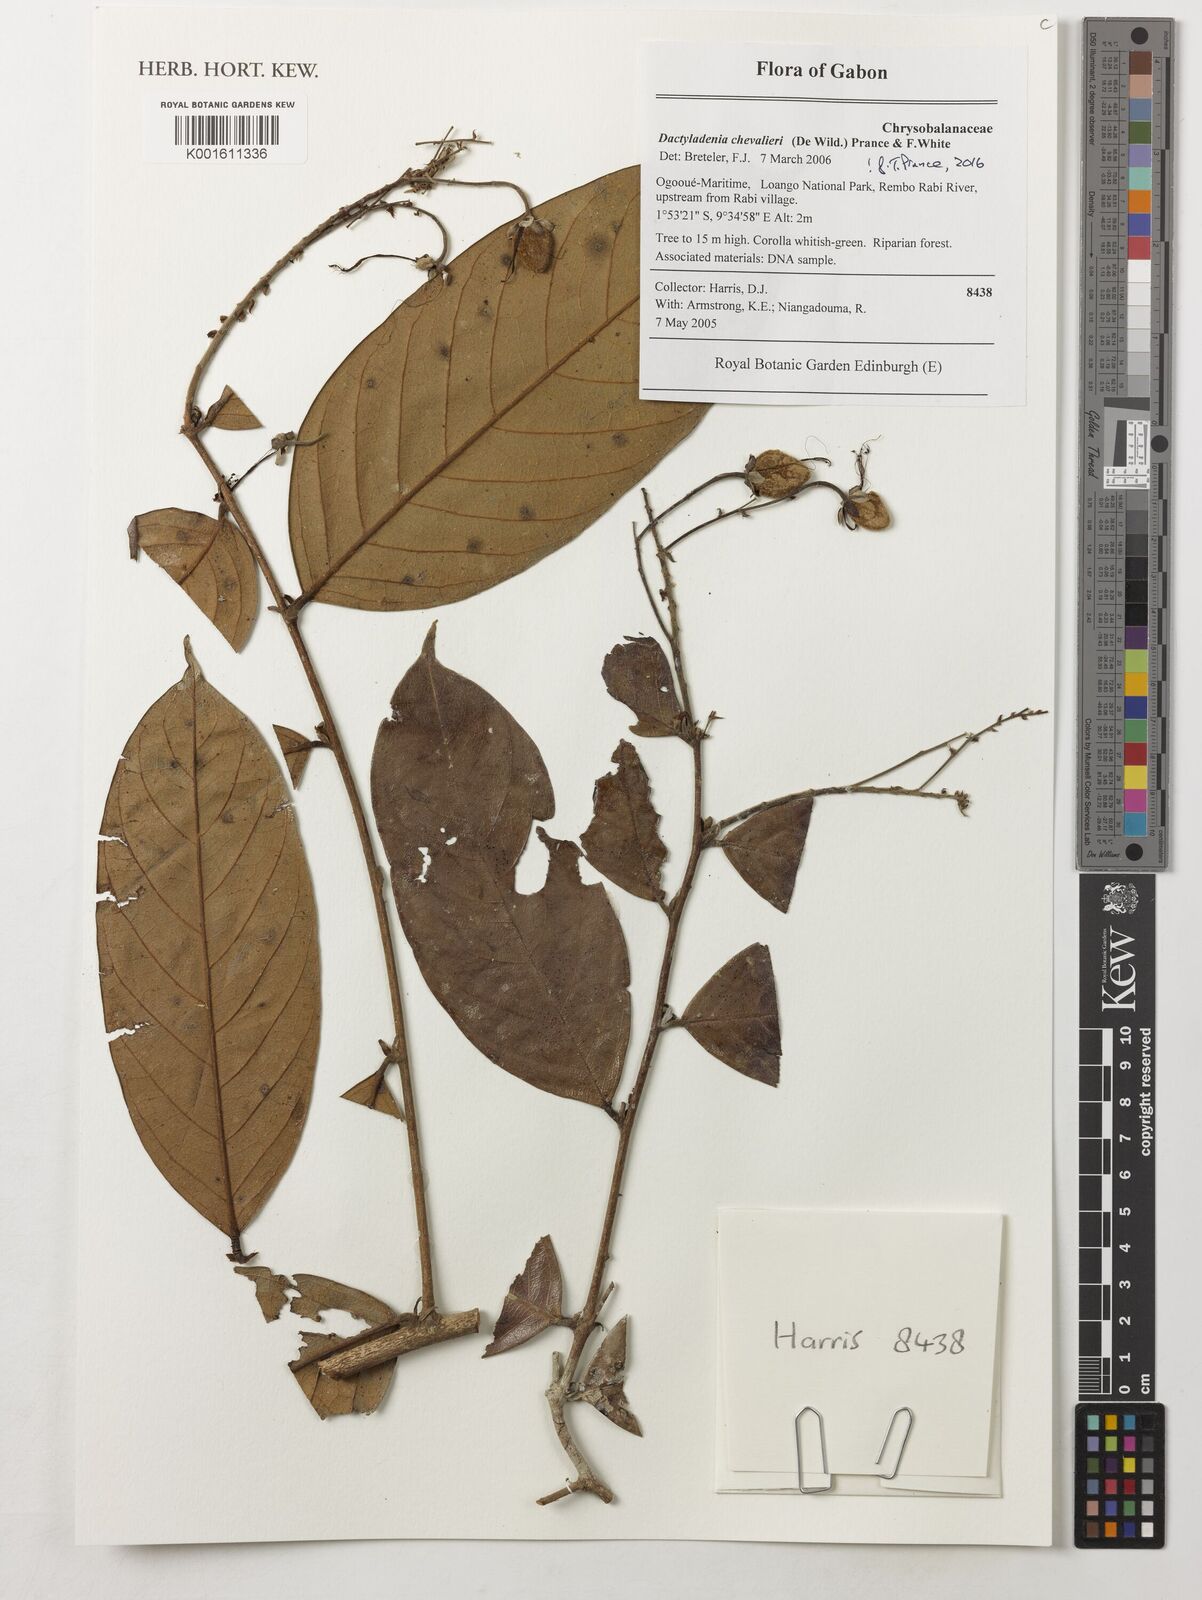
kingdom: Plantae
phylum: Tracheophyta
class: Magnoliopsida
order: Malpighiales
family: Chrysobalanaceae
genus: Dactyladenia
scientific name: Dactyladenia chevalieri
